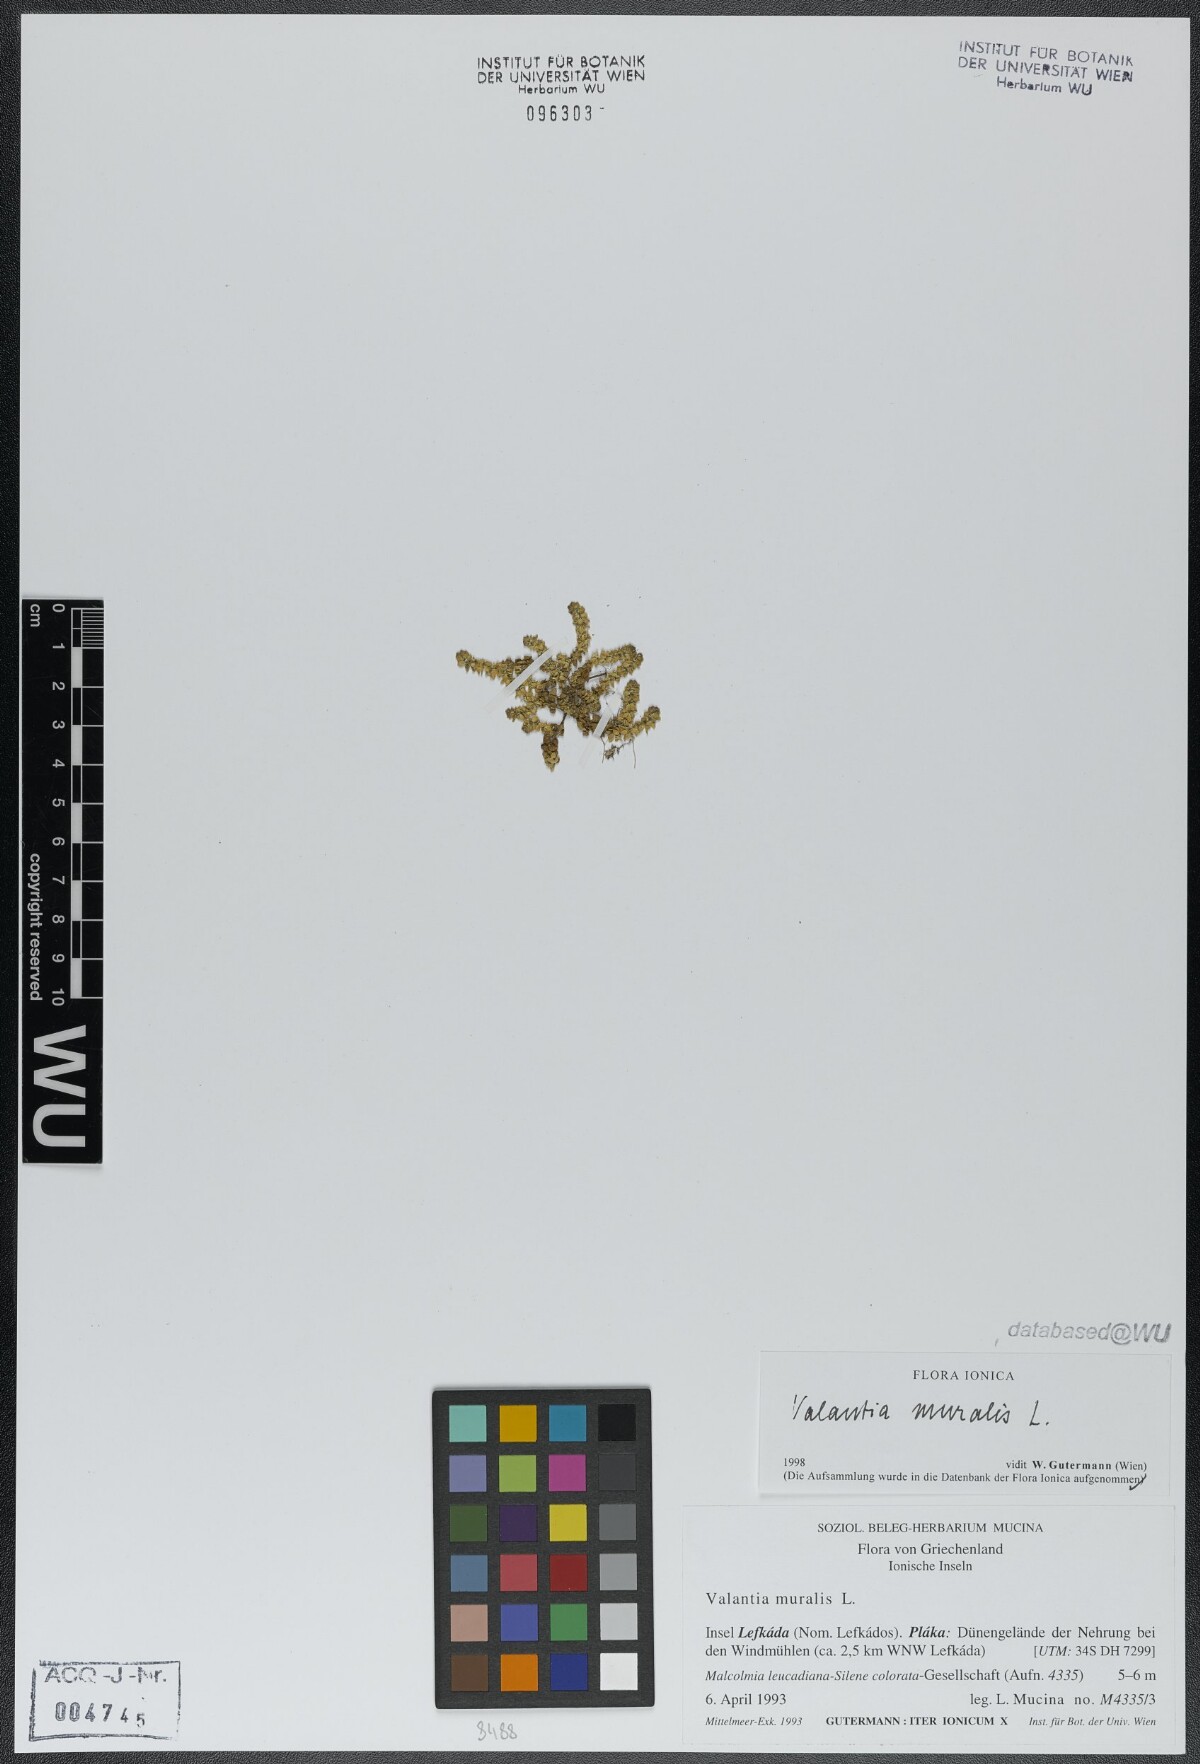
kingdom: Plantae
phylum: Tracheophyta
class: Magnoliopsida
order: Gentianales
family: Rubiaceae
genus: Valantia
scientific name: Valantia muralis
